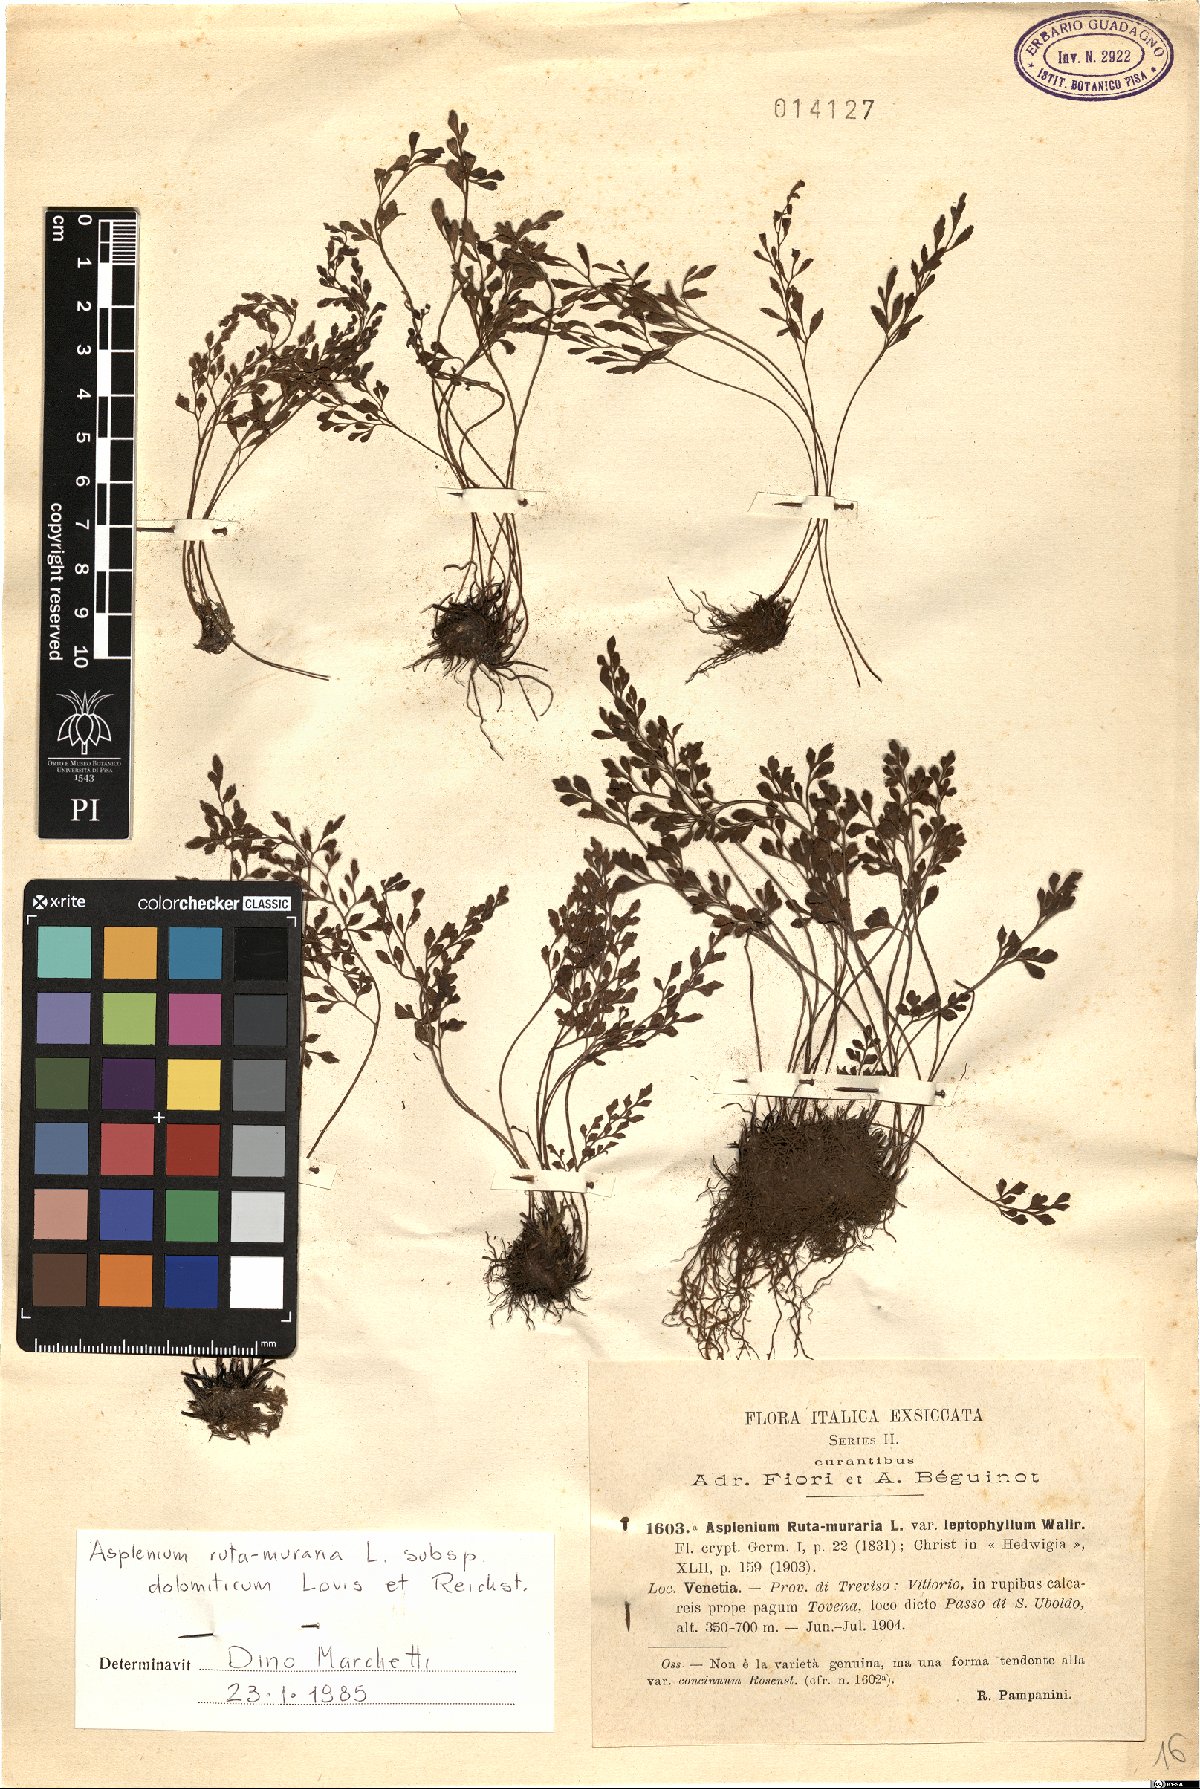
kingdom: Plantae
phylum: Tracheophyta
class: Polypodiopsida
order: Polypodiales
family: Aspleniaceae
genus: Asplenium
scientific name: Asplenium ruta-muraria
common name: Wall-rue
